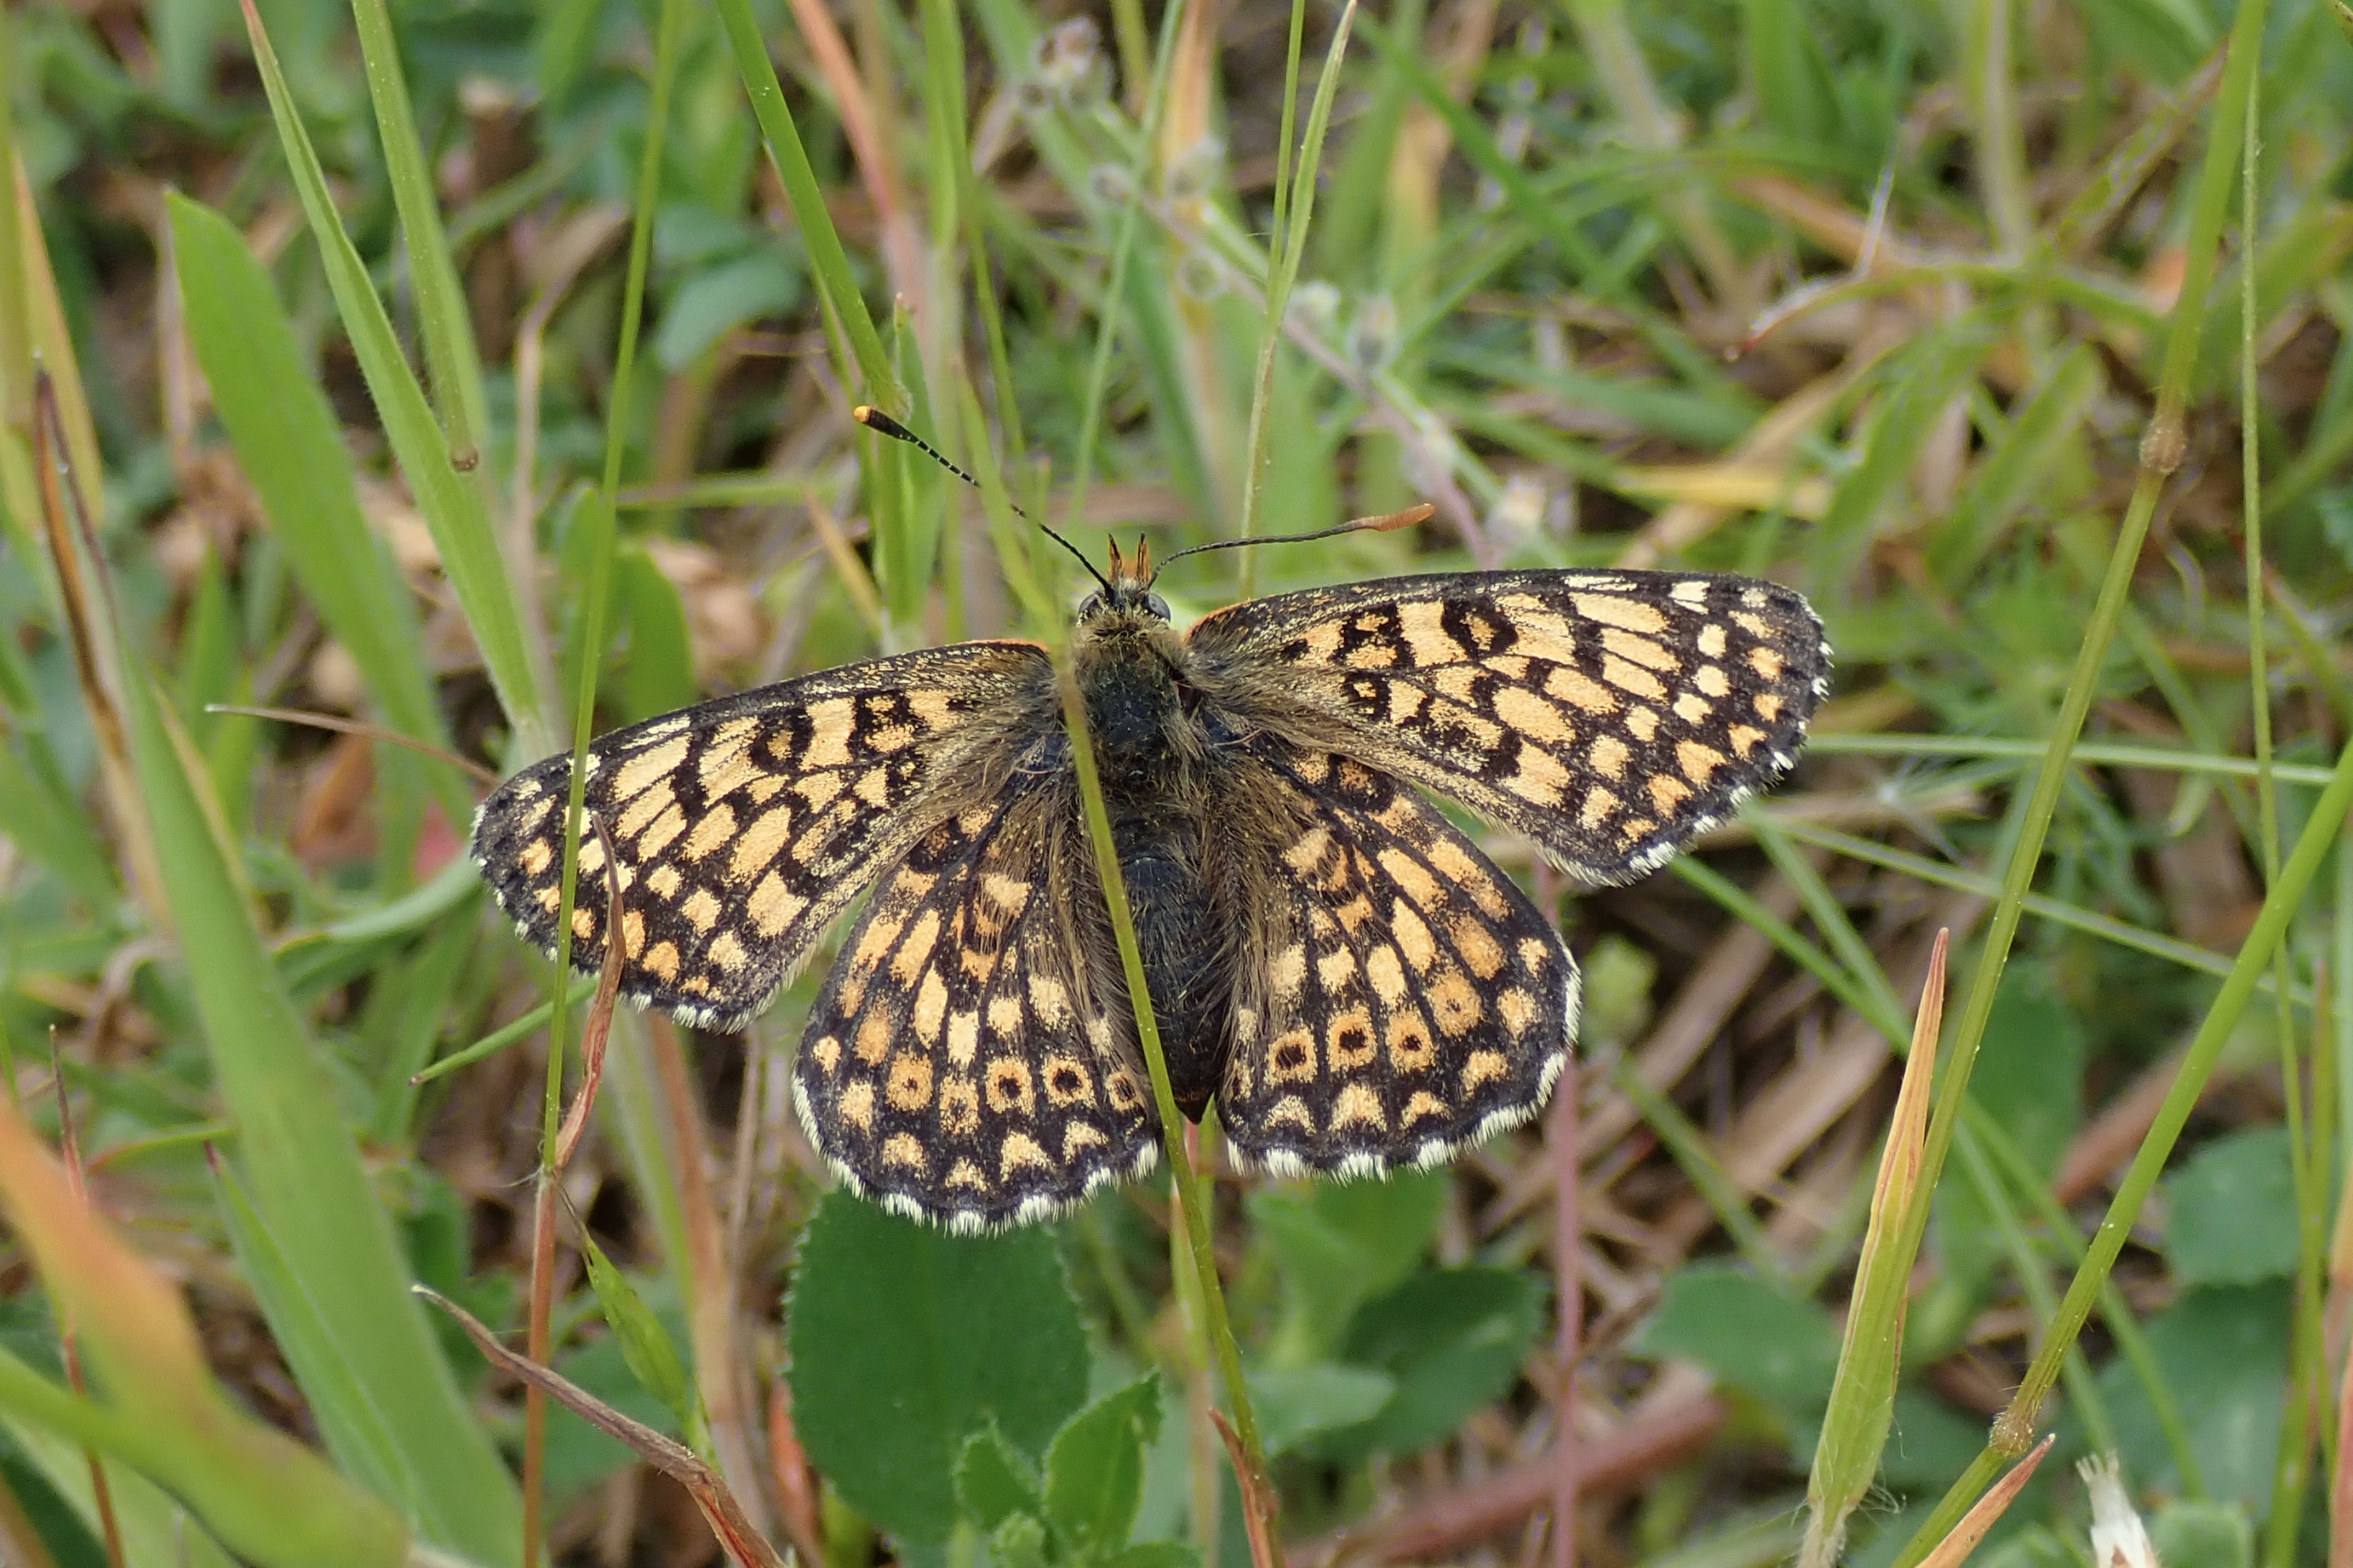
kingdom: Animalia
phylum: Arthropoda
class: Insecta
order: Lepidoptera
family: Nymphalidae
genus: Melitaea
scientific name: Melitaea cinxia
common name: Okkergul pletvinge
